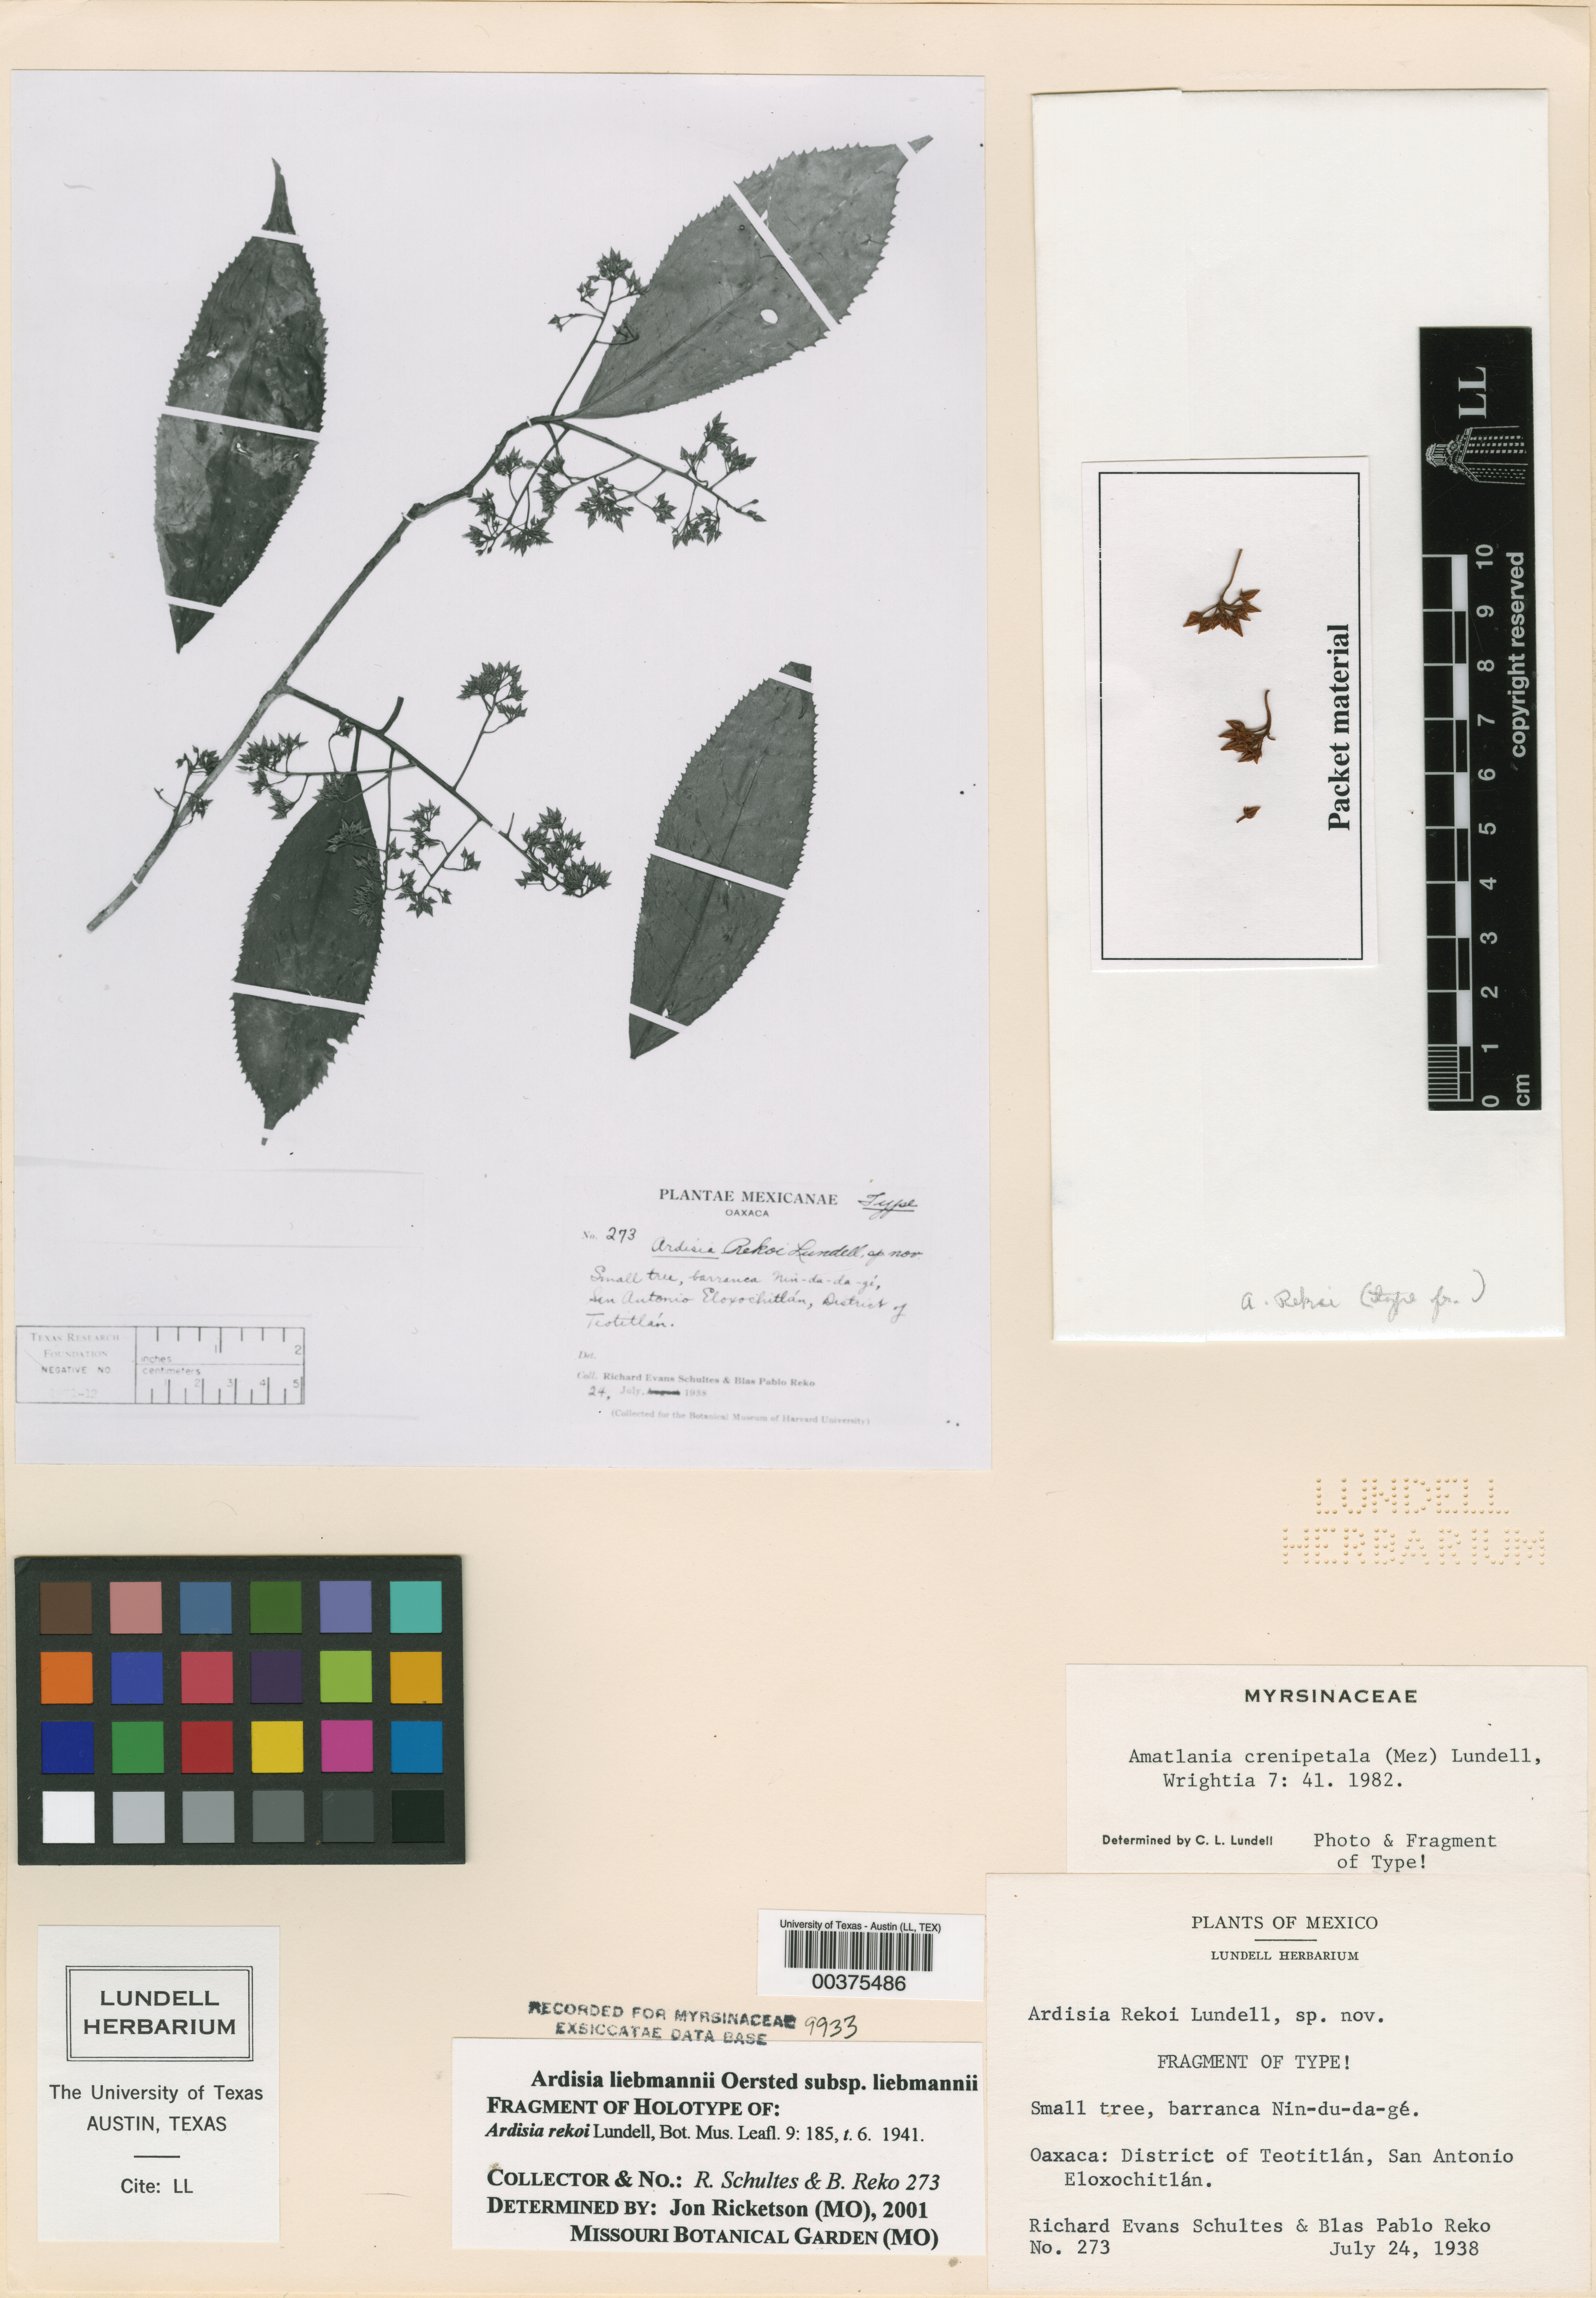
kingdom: Plantae
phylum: Tracheophyta
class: Magnoliopsida
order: Ericales
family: Primulaceae
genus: Ardisia
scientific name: Ardisia liebmannii
